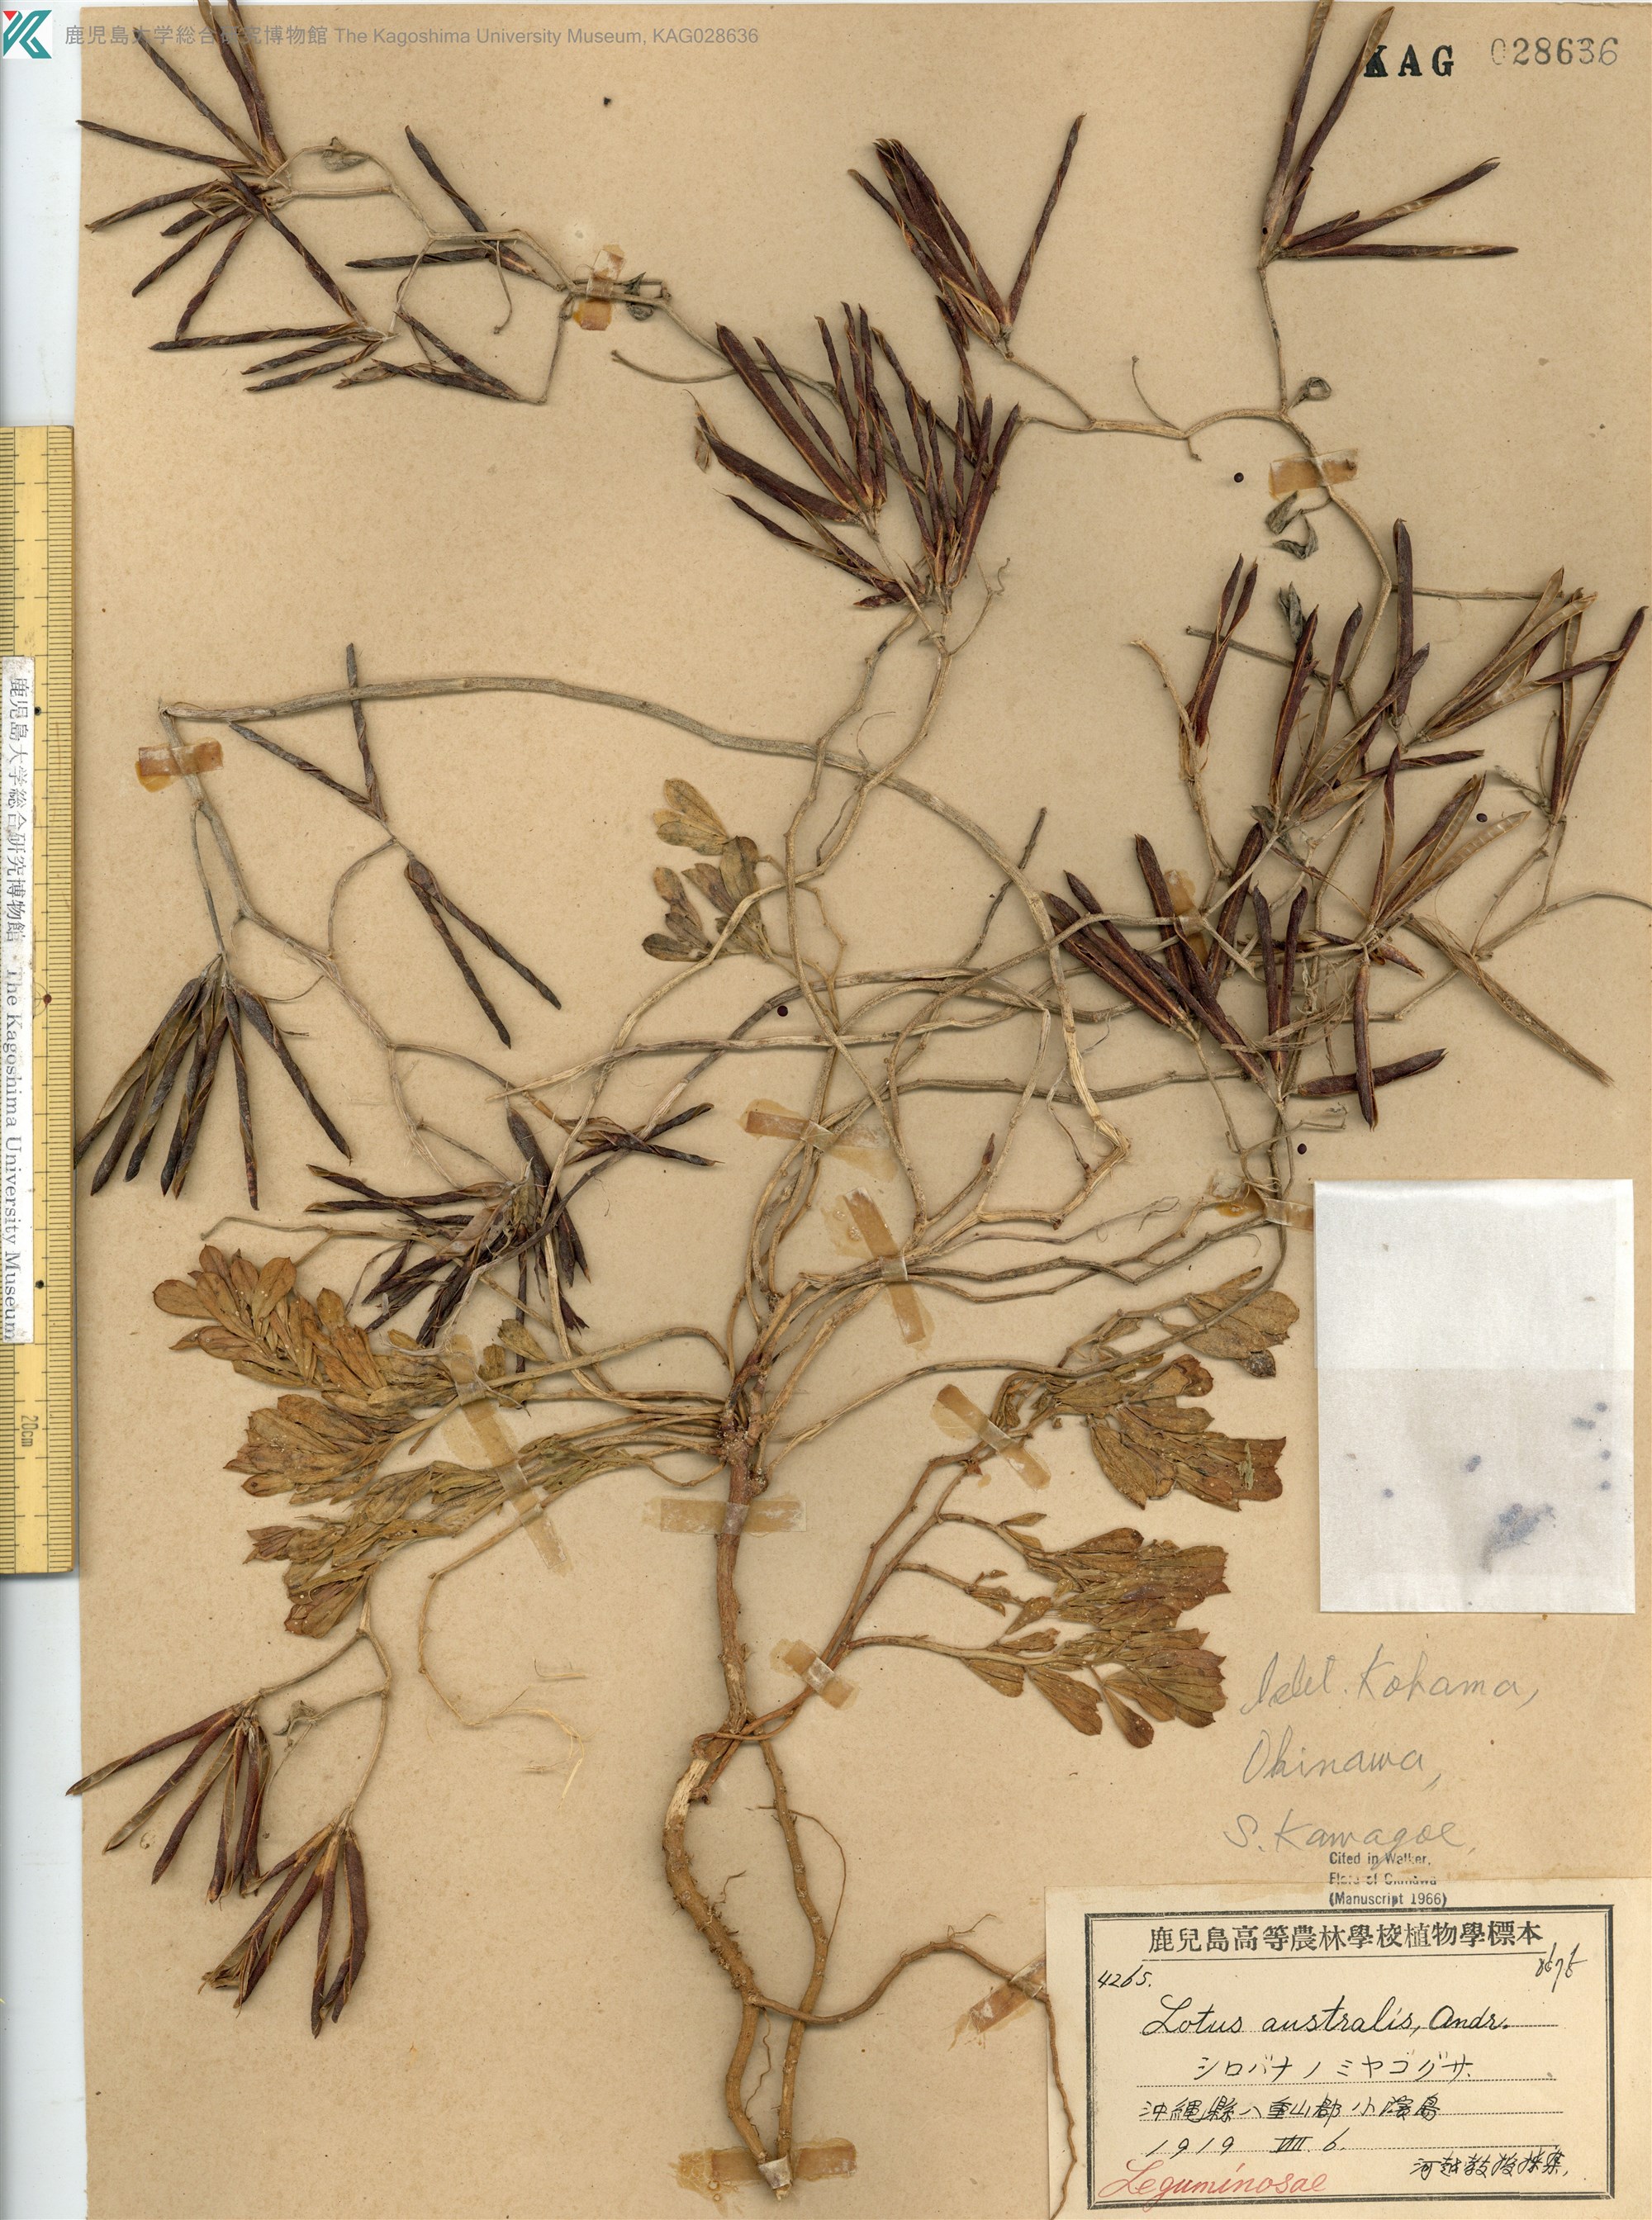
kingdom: Plantae
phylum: Tracheophyta
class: Magnoliopsida
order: Fabales
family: Fabaceae
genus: Lotus
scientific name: Lotus taitungensis
